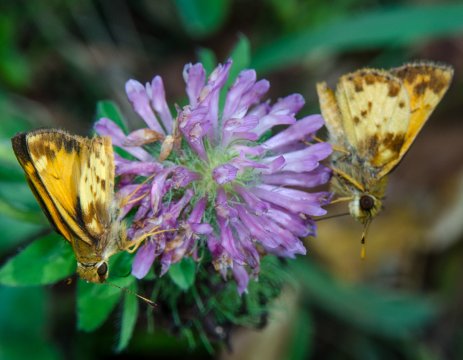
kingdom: Animalia
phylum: Arthropoda
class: Insecta
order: Lepidoptera
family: Hesperiidae
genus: Lon
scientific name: Lon zabulon
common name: Zabulon Skipper
